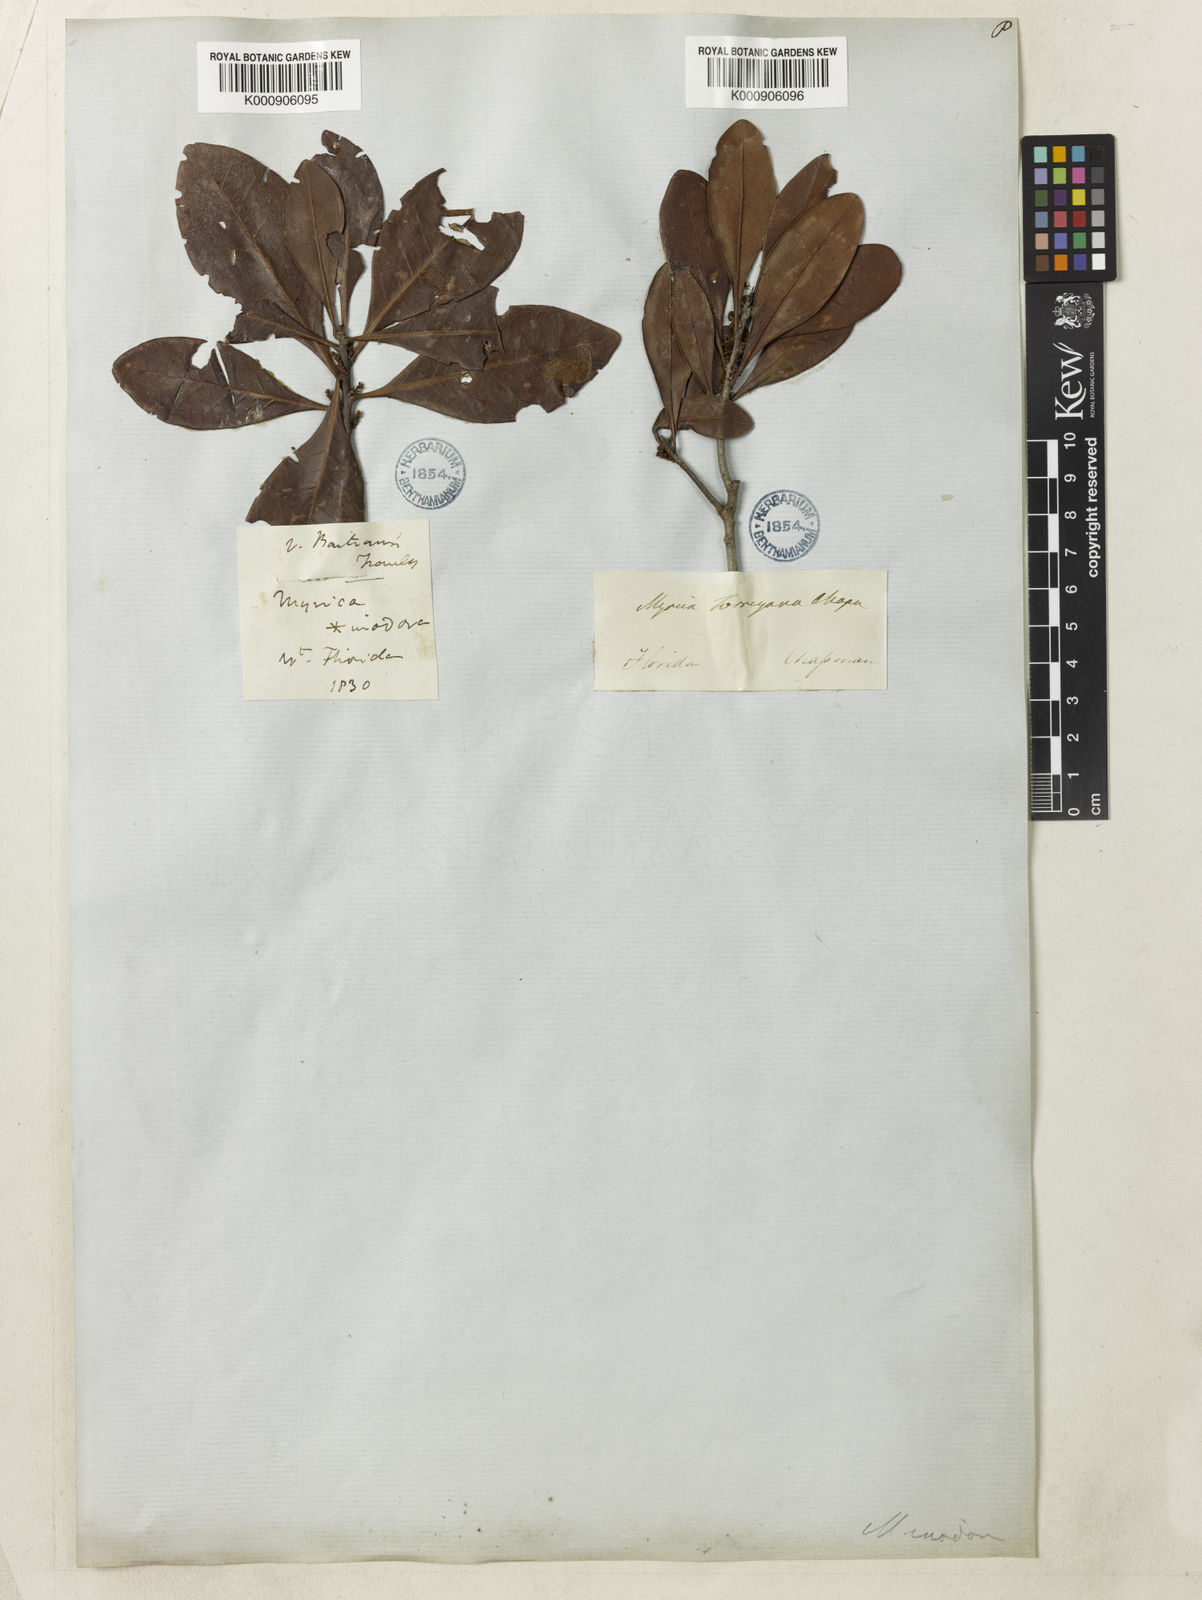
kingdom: Plantae
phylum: Tracheophyta
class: Magnoliopsida
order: Fagales
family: Myricaceae
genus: Morella
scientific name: Morella inodora
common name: Candle-berry
